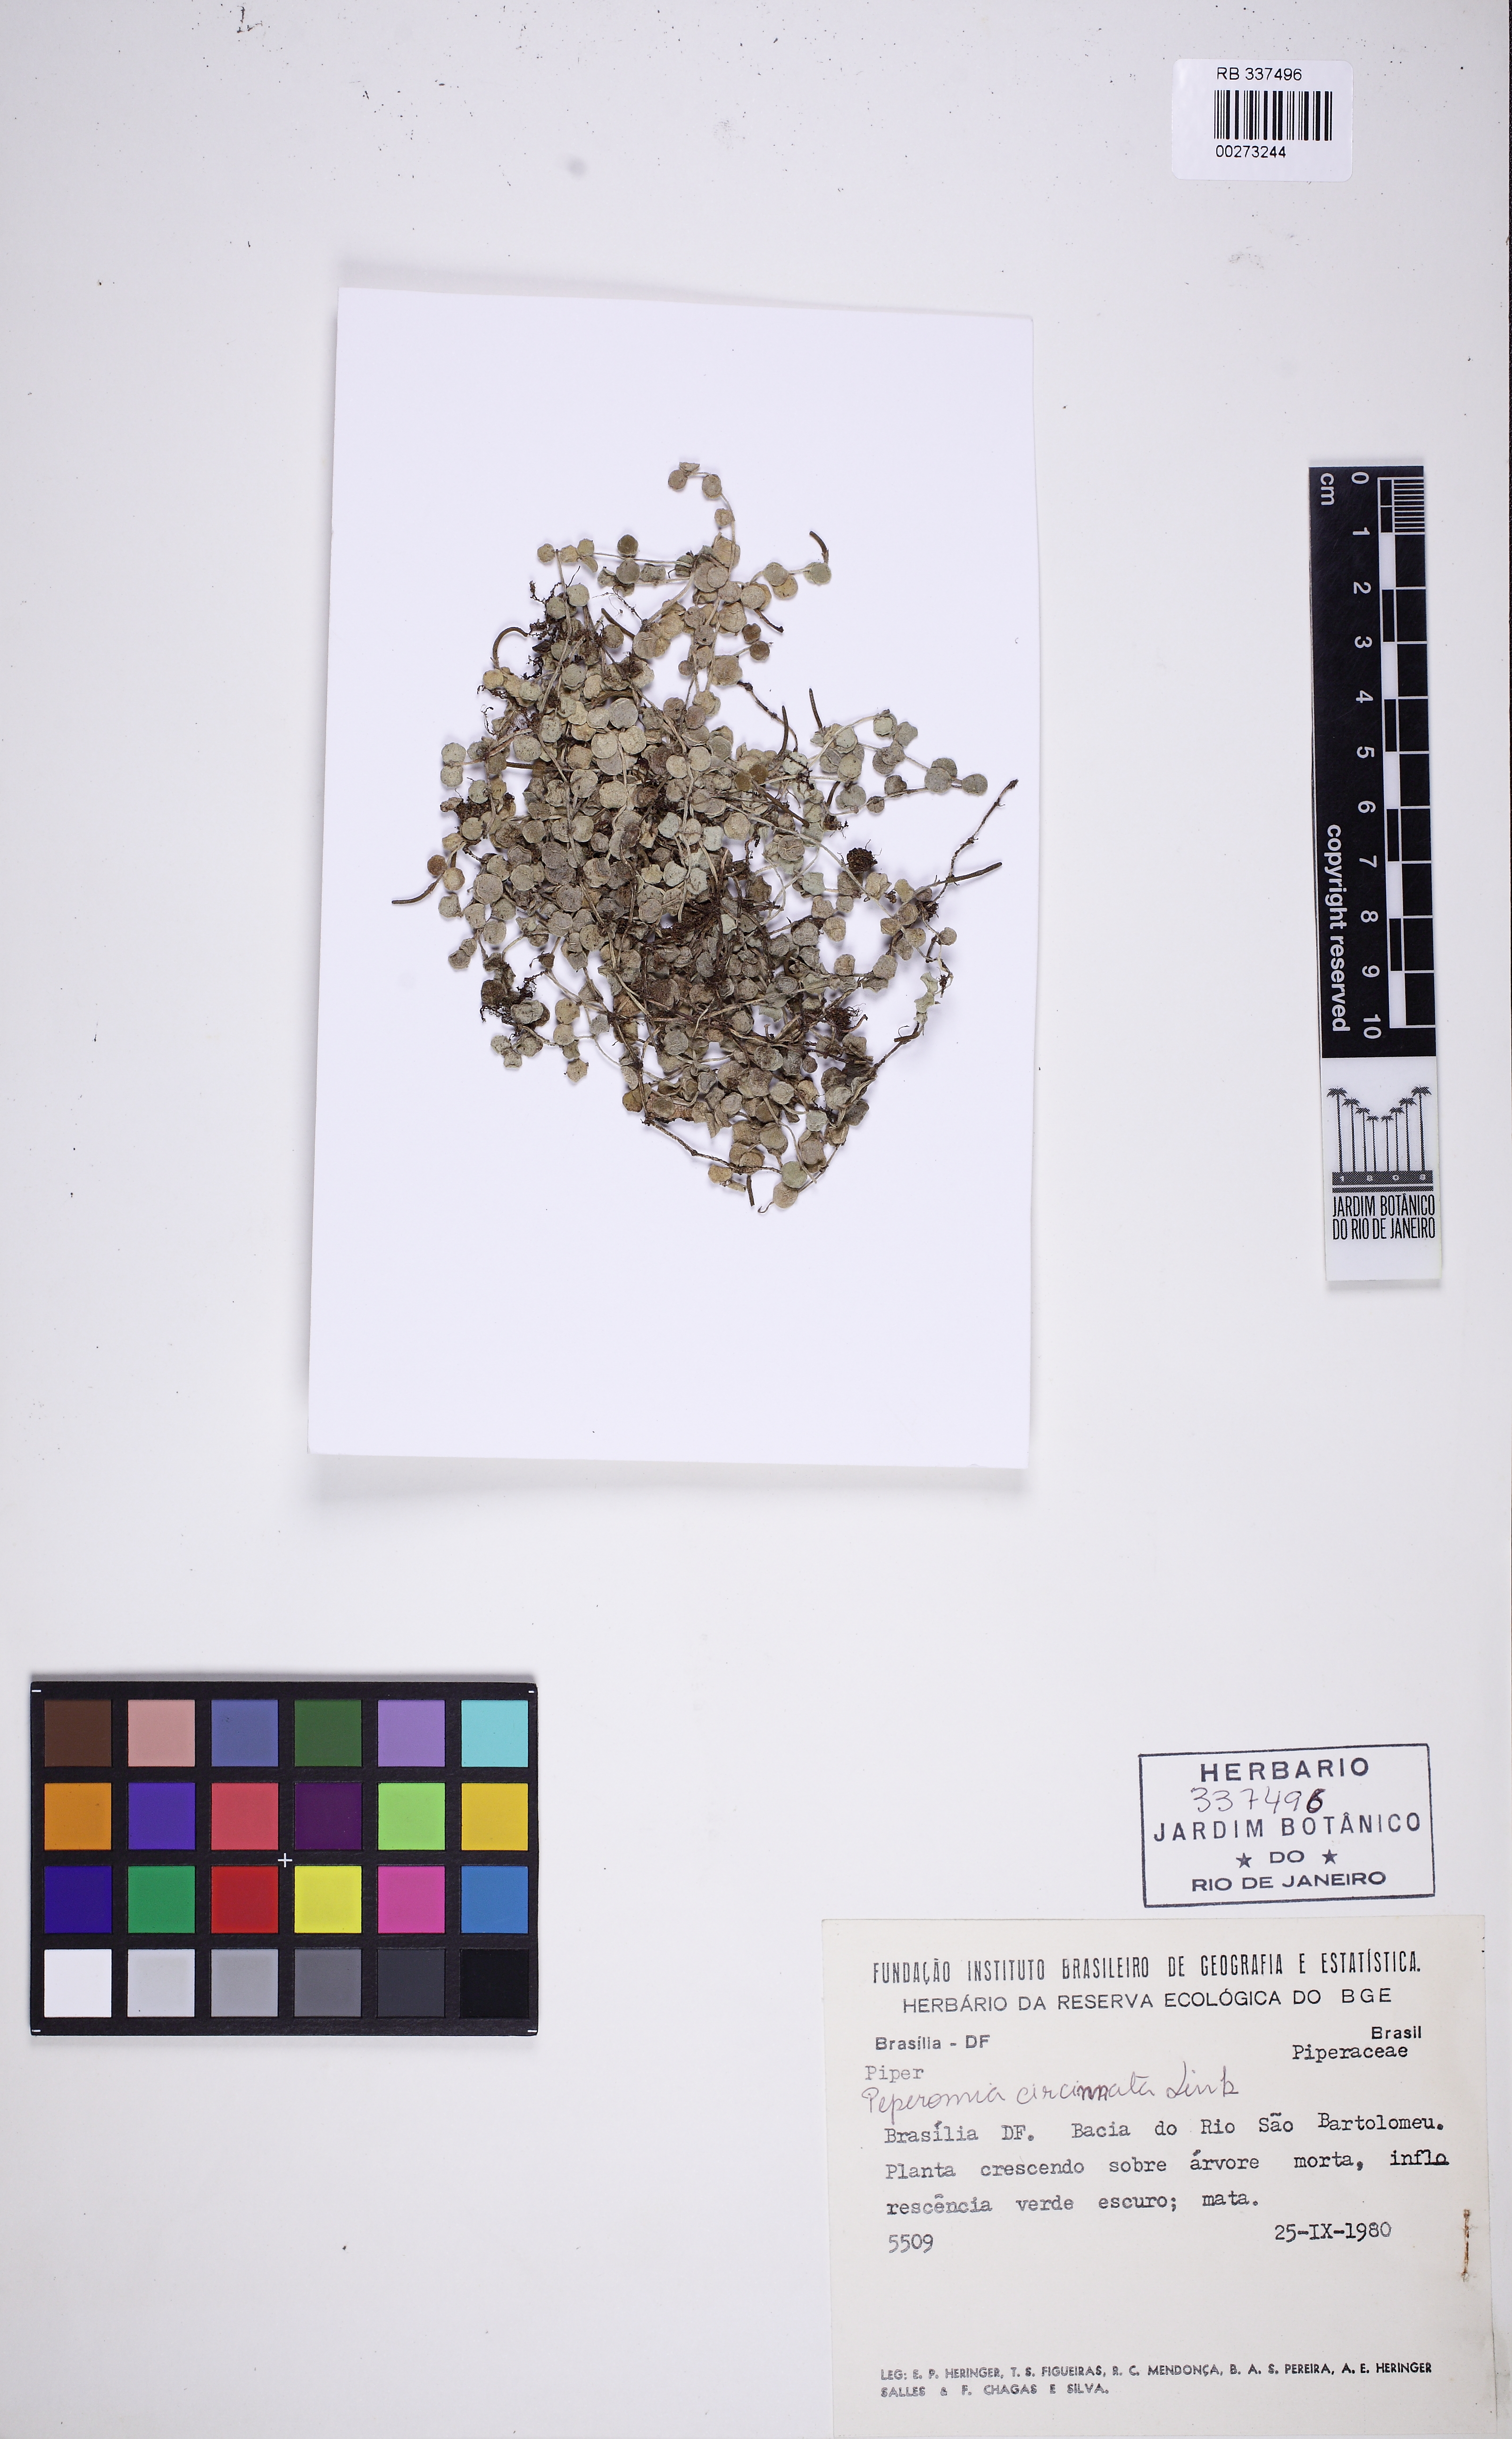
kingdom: Plantae
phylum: Tracheophyta
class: Magnoliopsida
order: Piperales
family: Piperaceae
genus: Peperomia
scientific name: Peperomia circinnata
